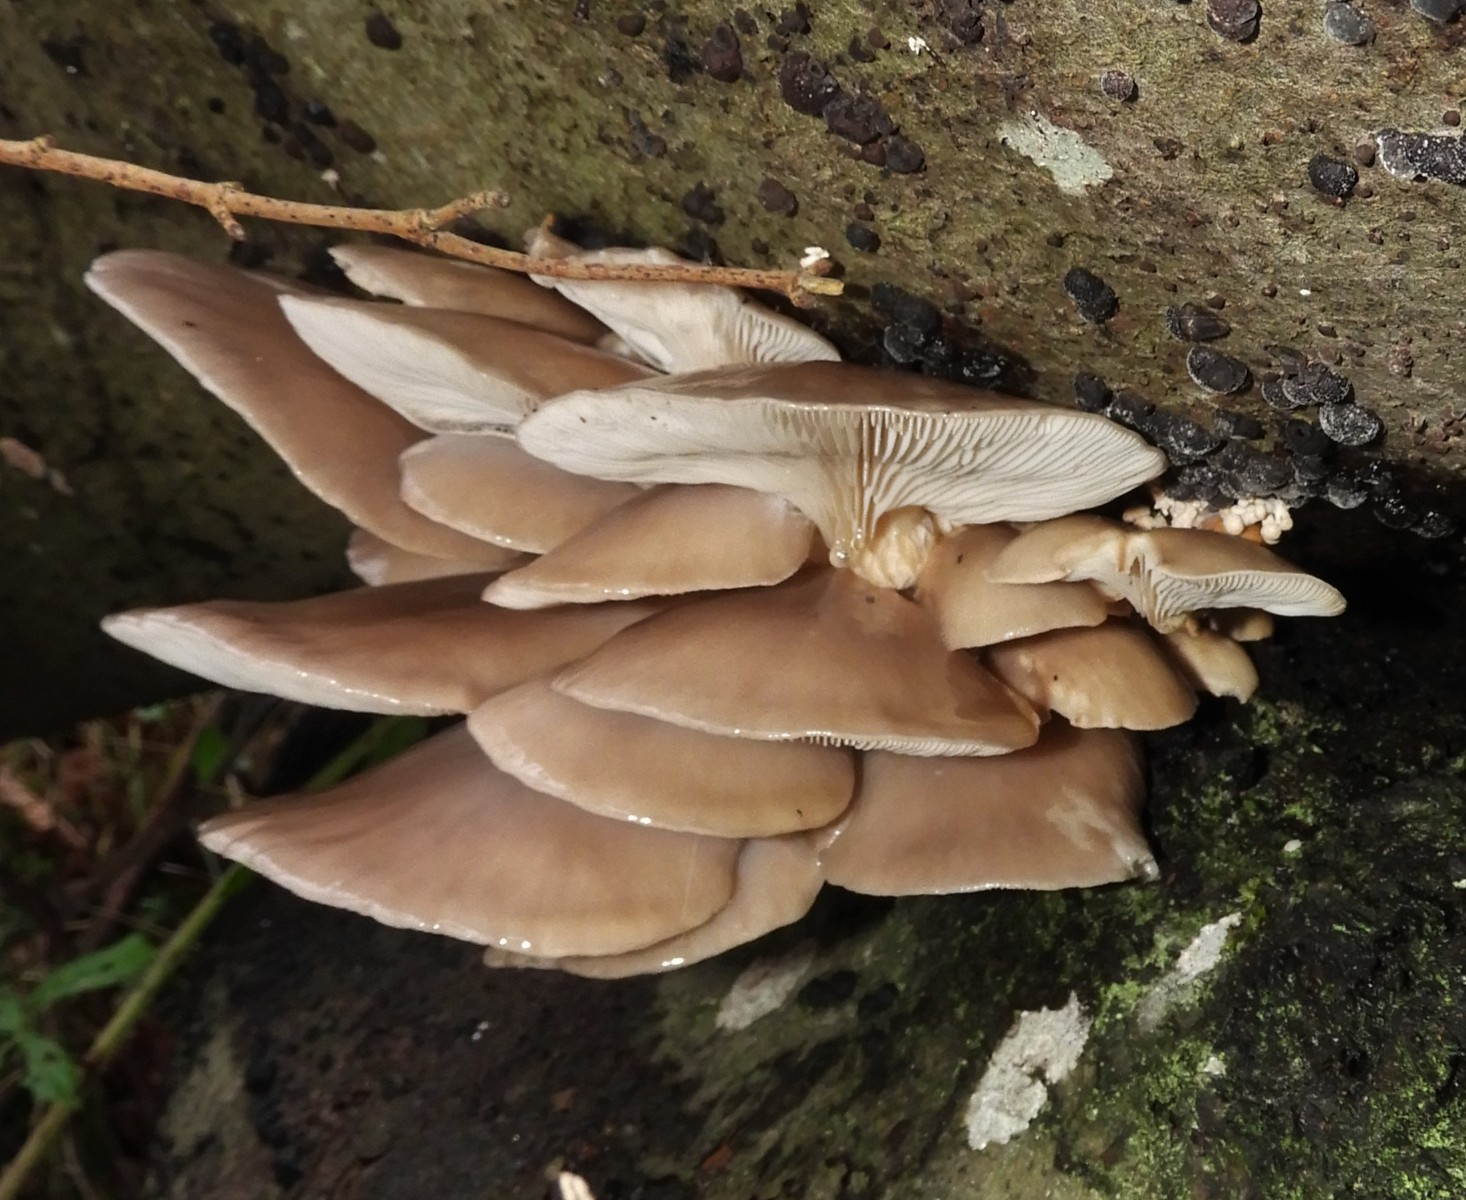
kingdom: Fungi
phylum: Basidiomycota
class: Agaricomycetes
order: Agaricales
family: Pleurotaceae
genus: Pleurotus
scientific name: Pleurotus ostreatus
